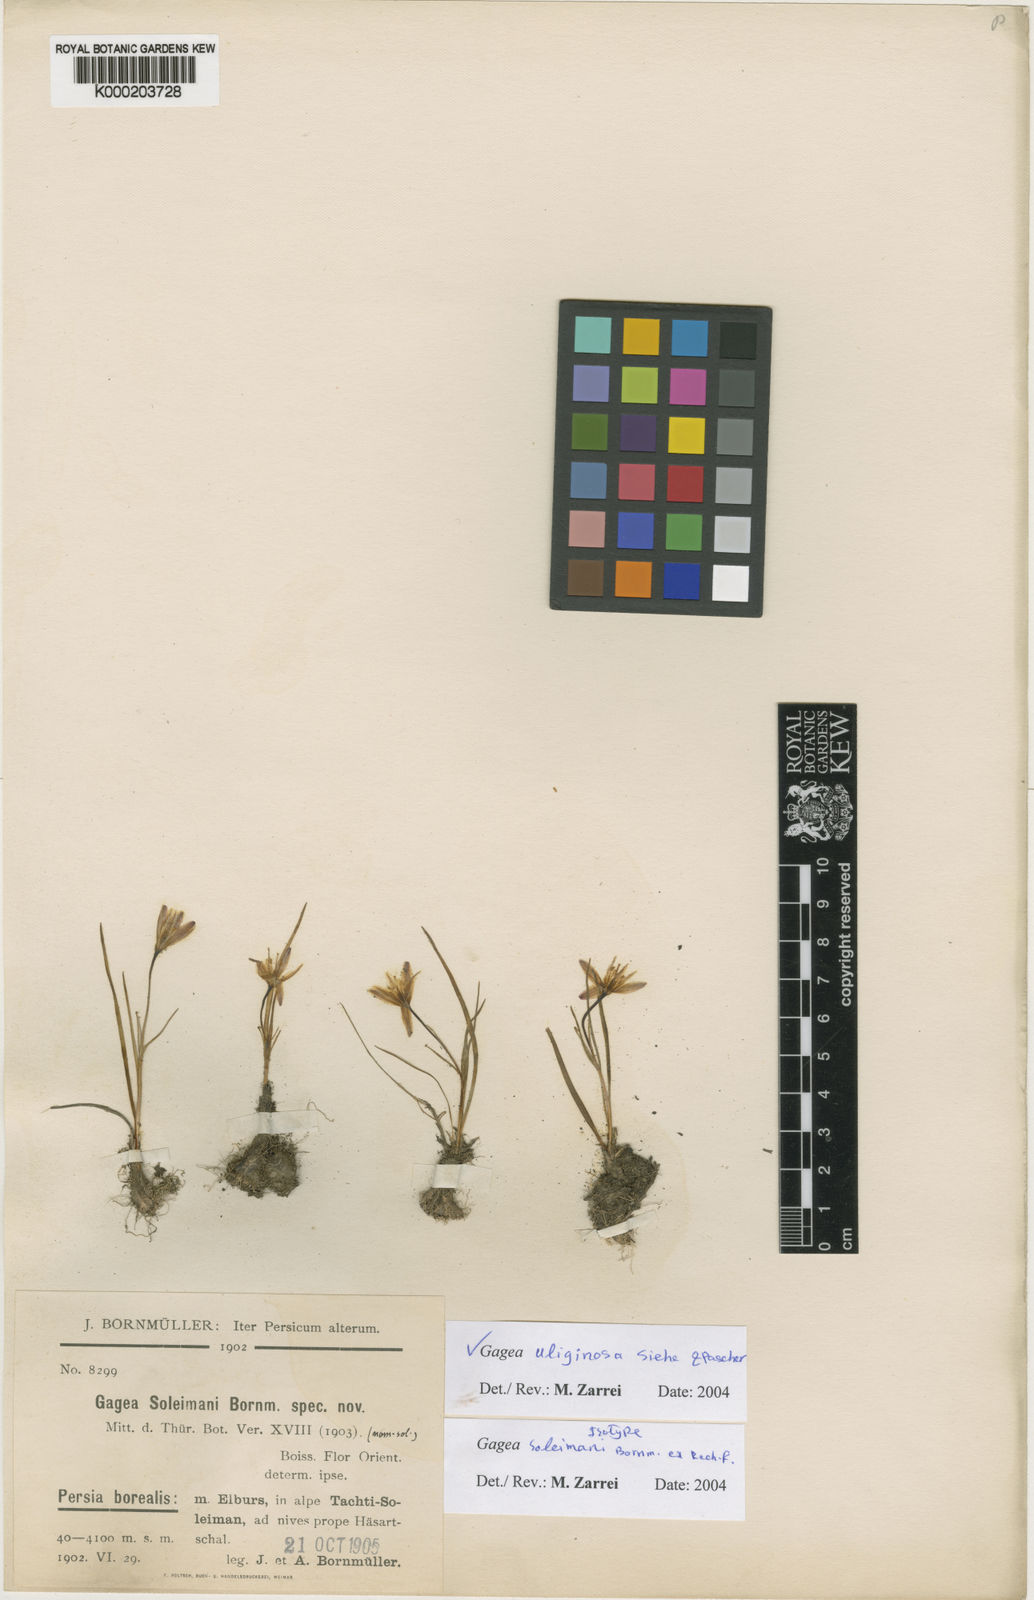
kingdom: Plantae
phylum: Tracheophyta
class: Liliopsida
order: Liliales
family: Liliaceae
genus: Gagea
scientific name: Gagea uliginosa
